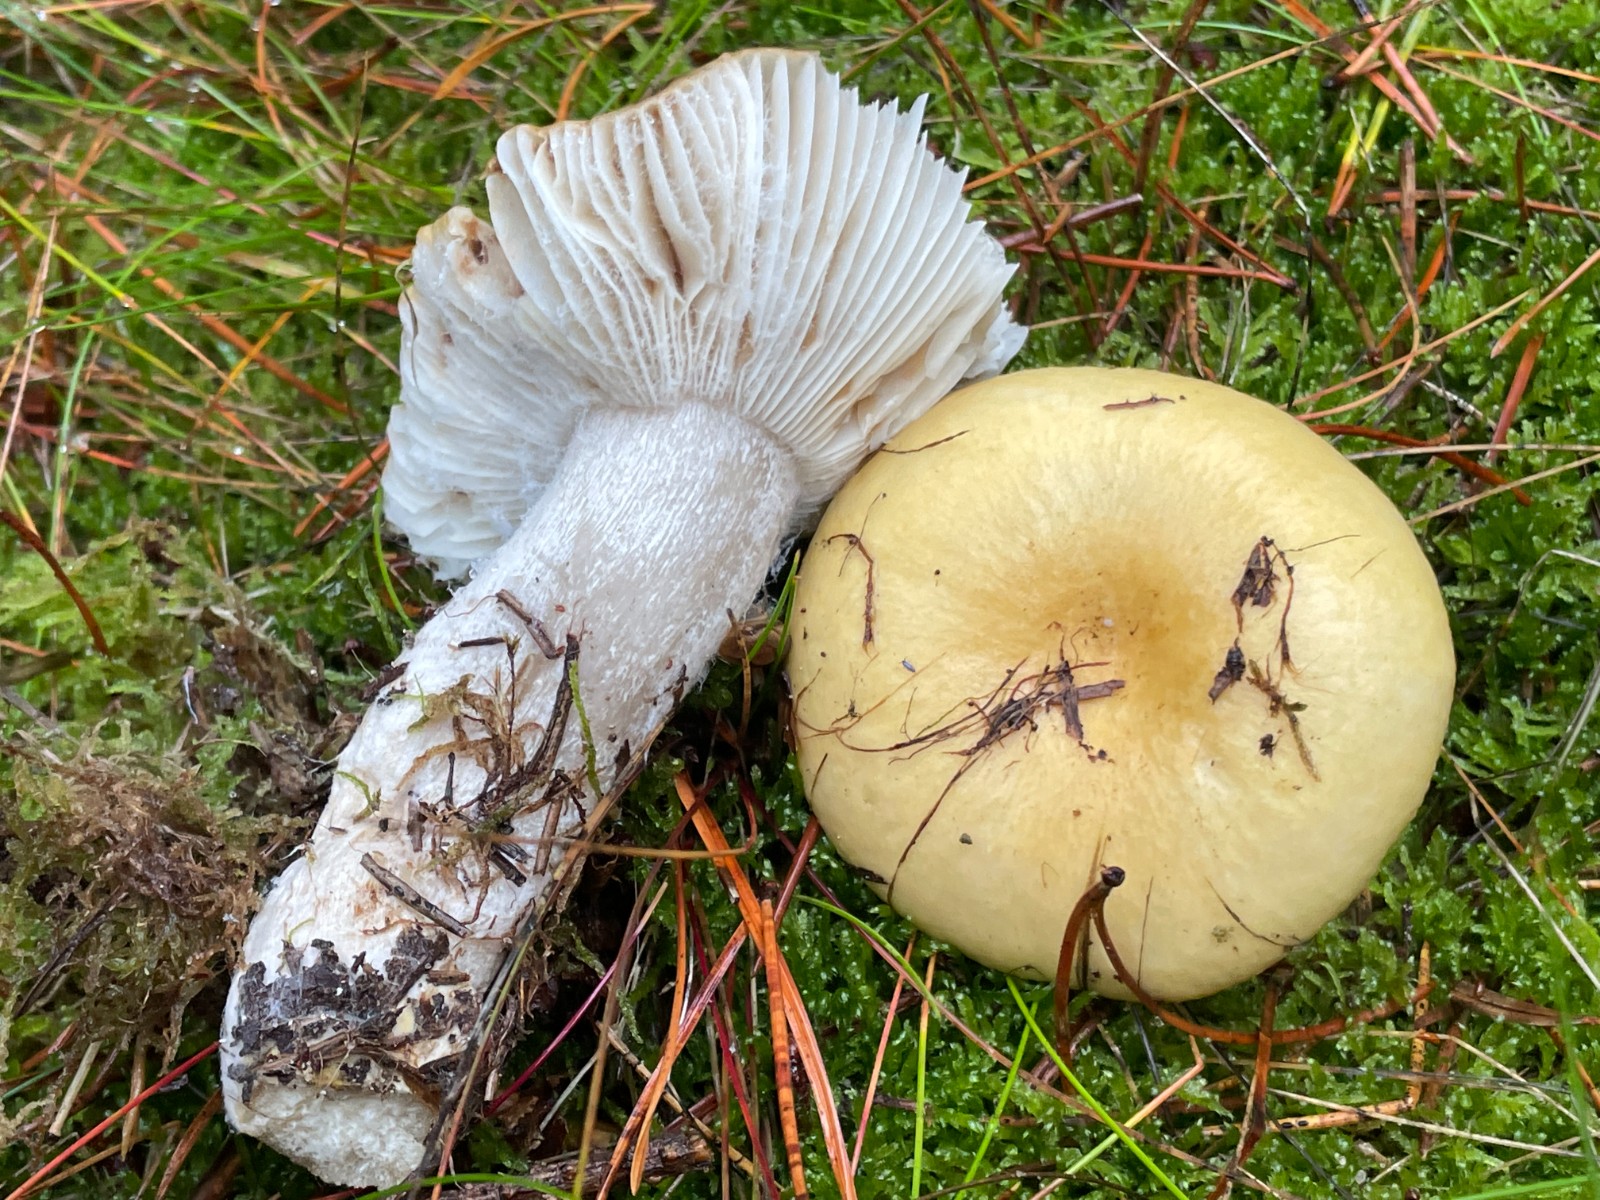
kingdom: Fungi
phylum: Basidiomycota
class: Agaricomycetes
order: Russulales
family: Russulaceae
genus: Russula
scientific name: Russula ochroleuca
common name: okkergul skørhat
